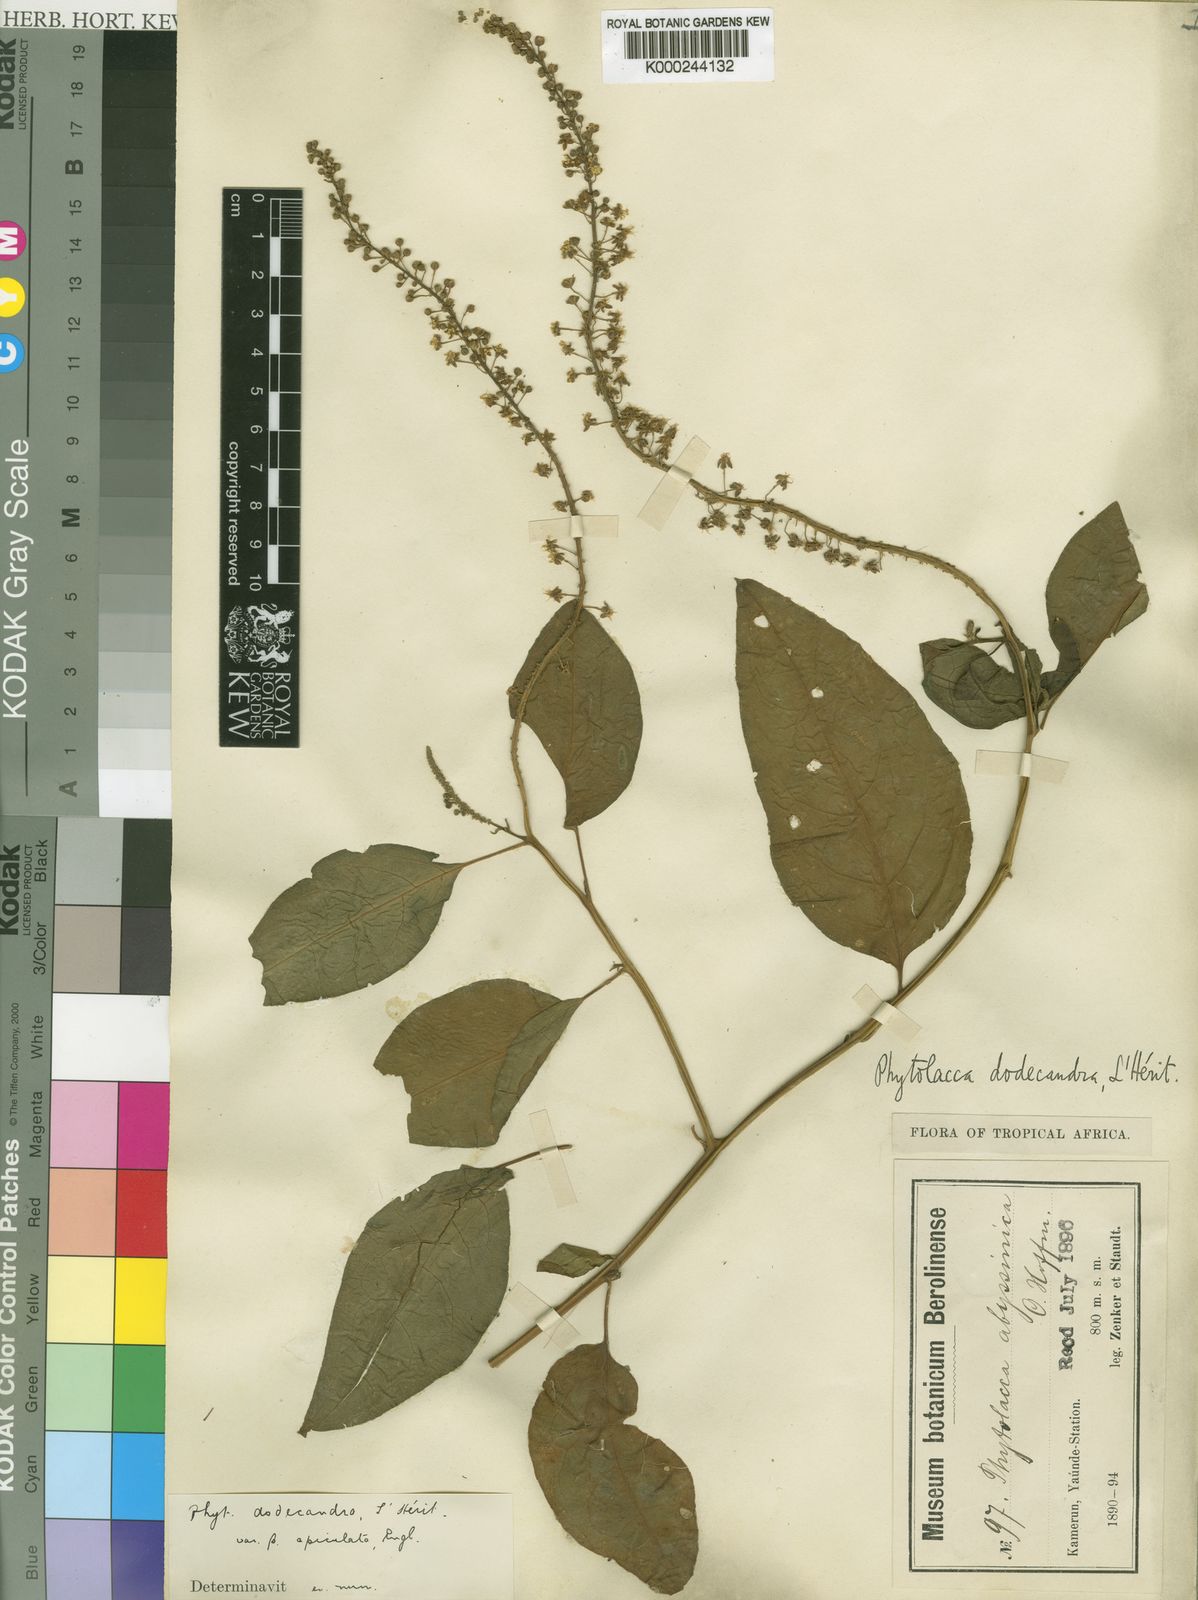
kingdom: Plantae
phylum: Tracheophyta
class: Magnoliopsida
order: Caryophyllales
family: Phytolaccaceae
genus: Phytolacca
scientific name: Phytolacca
